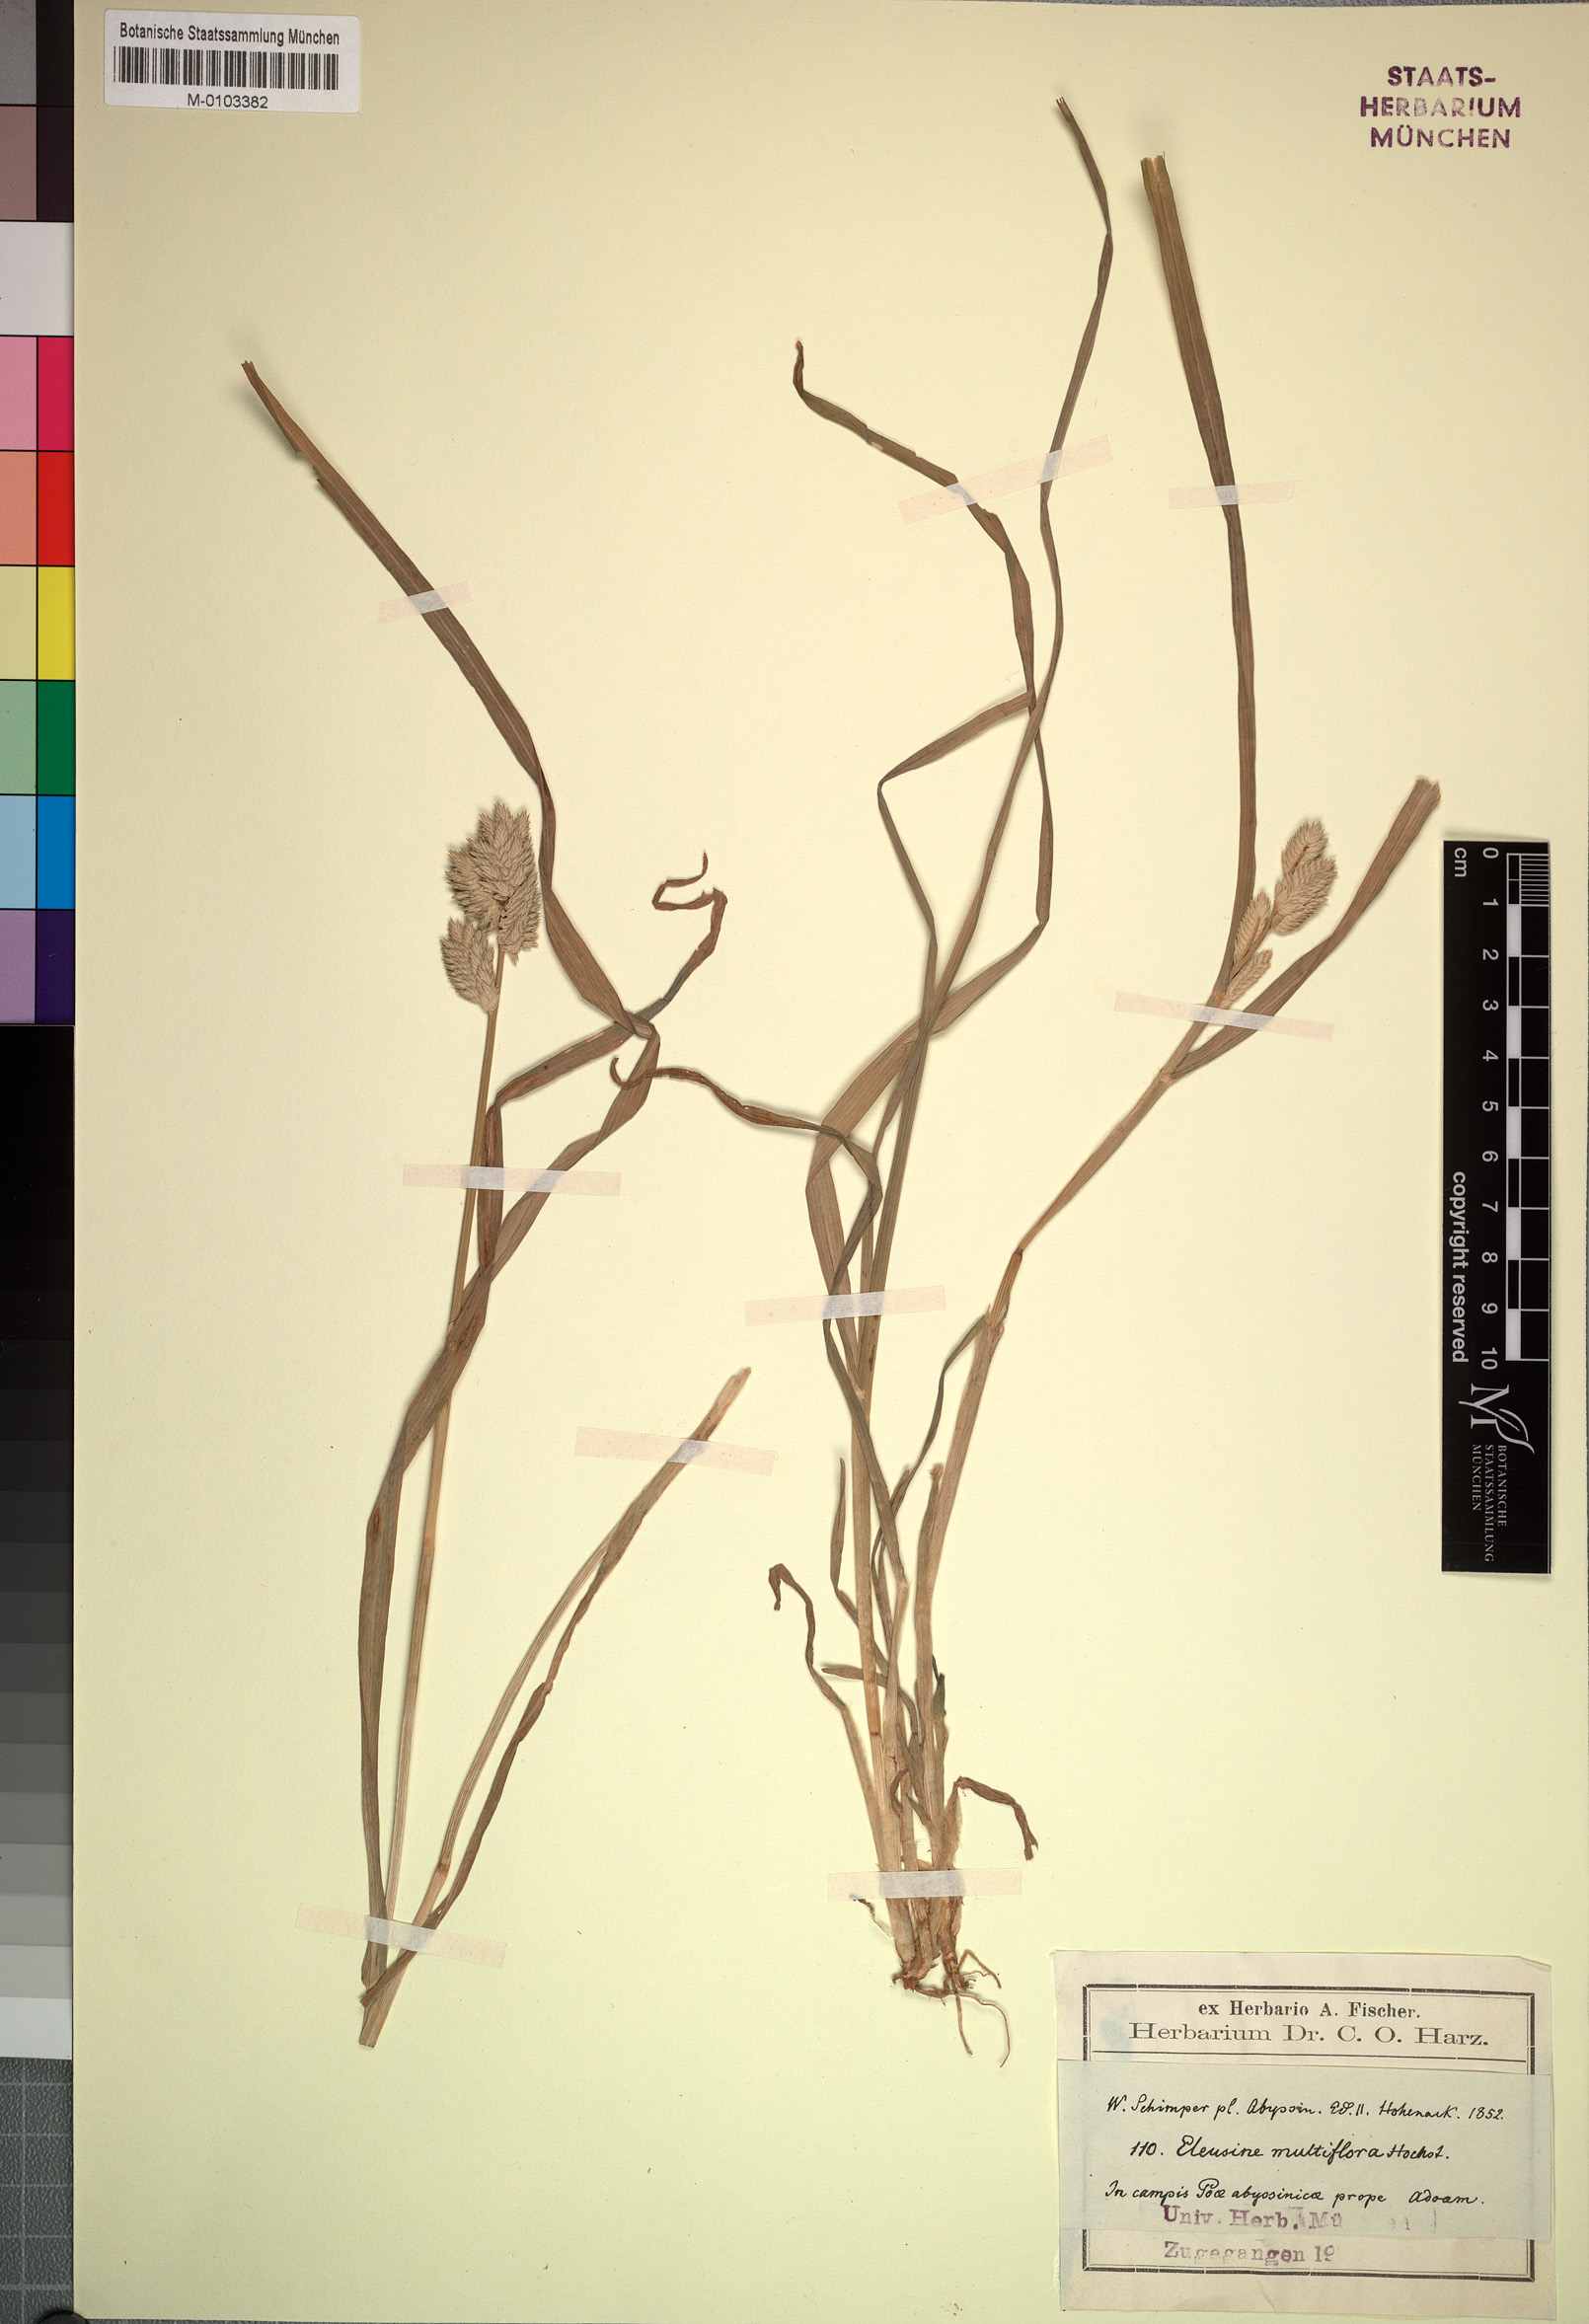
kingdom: Plantae
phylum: Tracheophyta
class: Liliopsida
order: Poales
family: Poaceae
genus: Eleusine
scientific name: Eleusine multiflora
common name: Fat-spiked yard-grass
